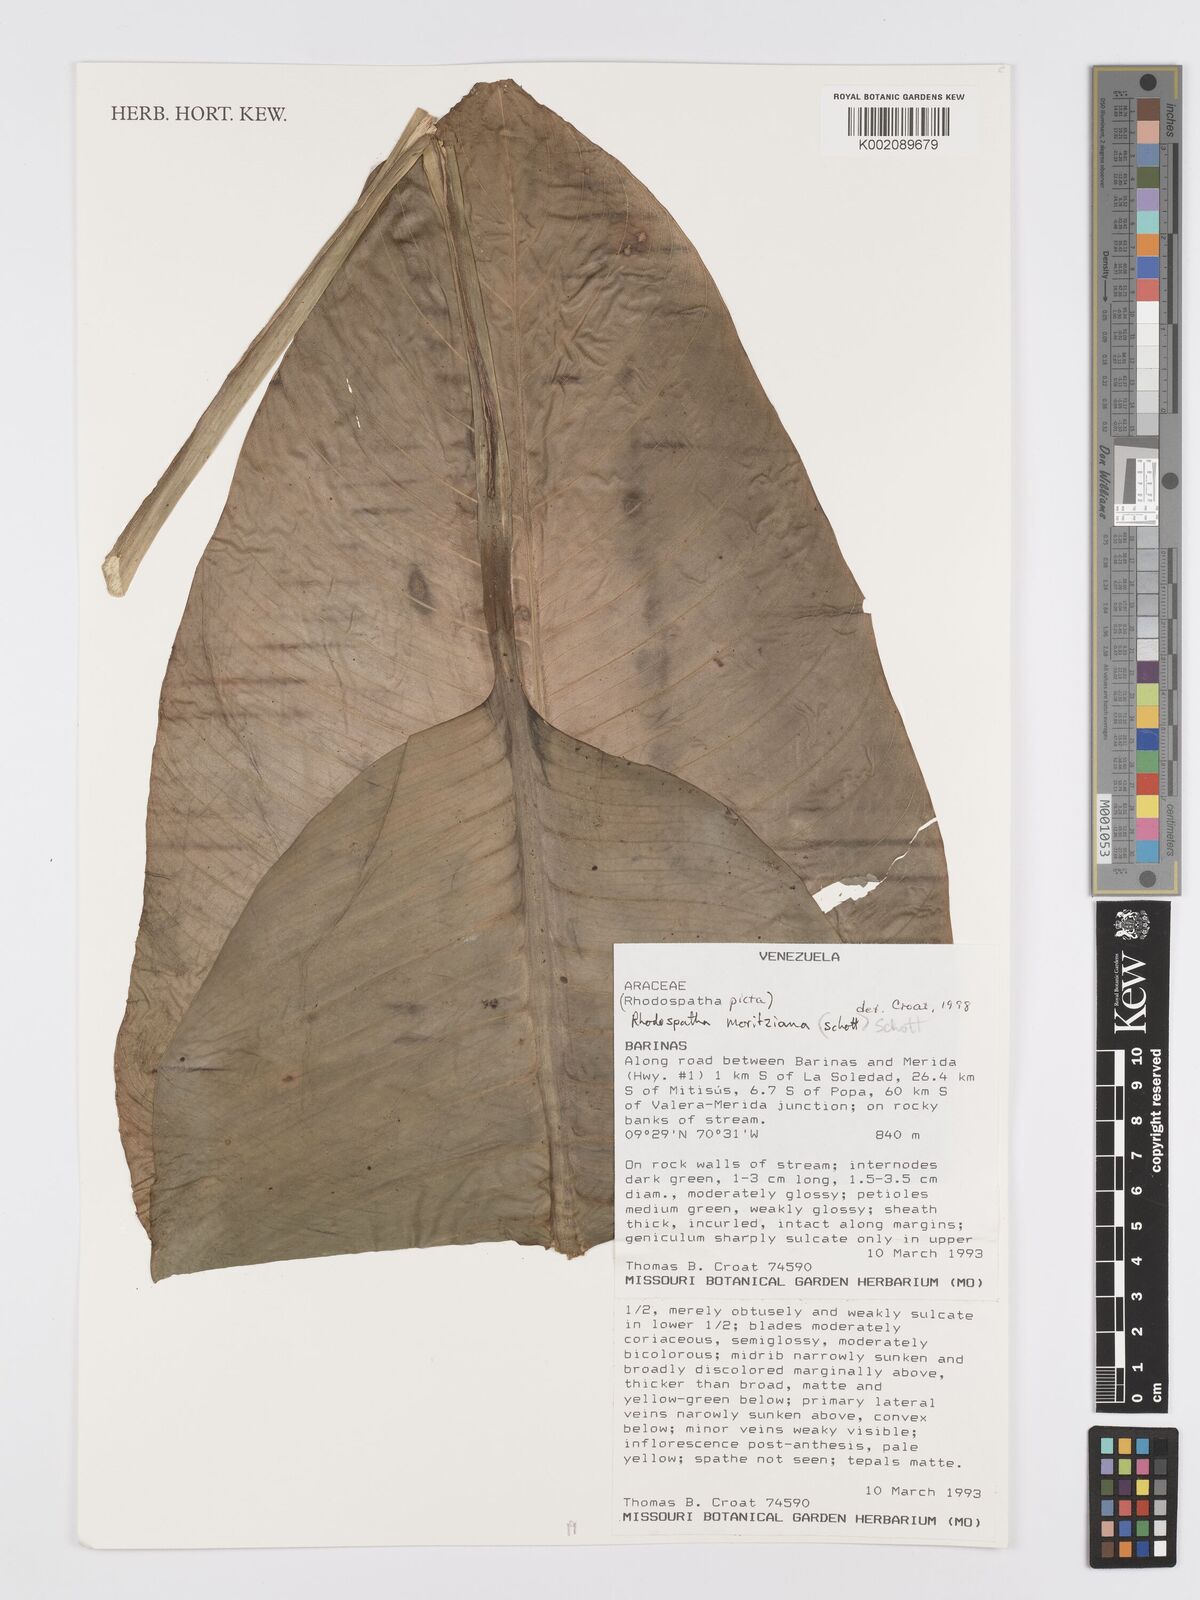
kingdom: Plantae
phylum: Tracheophyta
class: Liliopsida
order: Alismatales
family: Araceae
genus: Rhodospatha
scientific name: Rhodospatha moritziana
